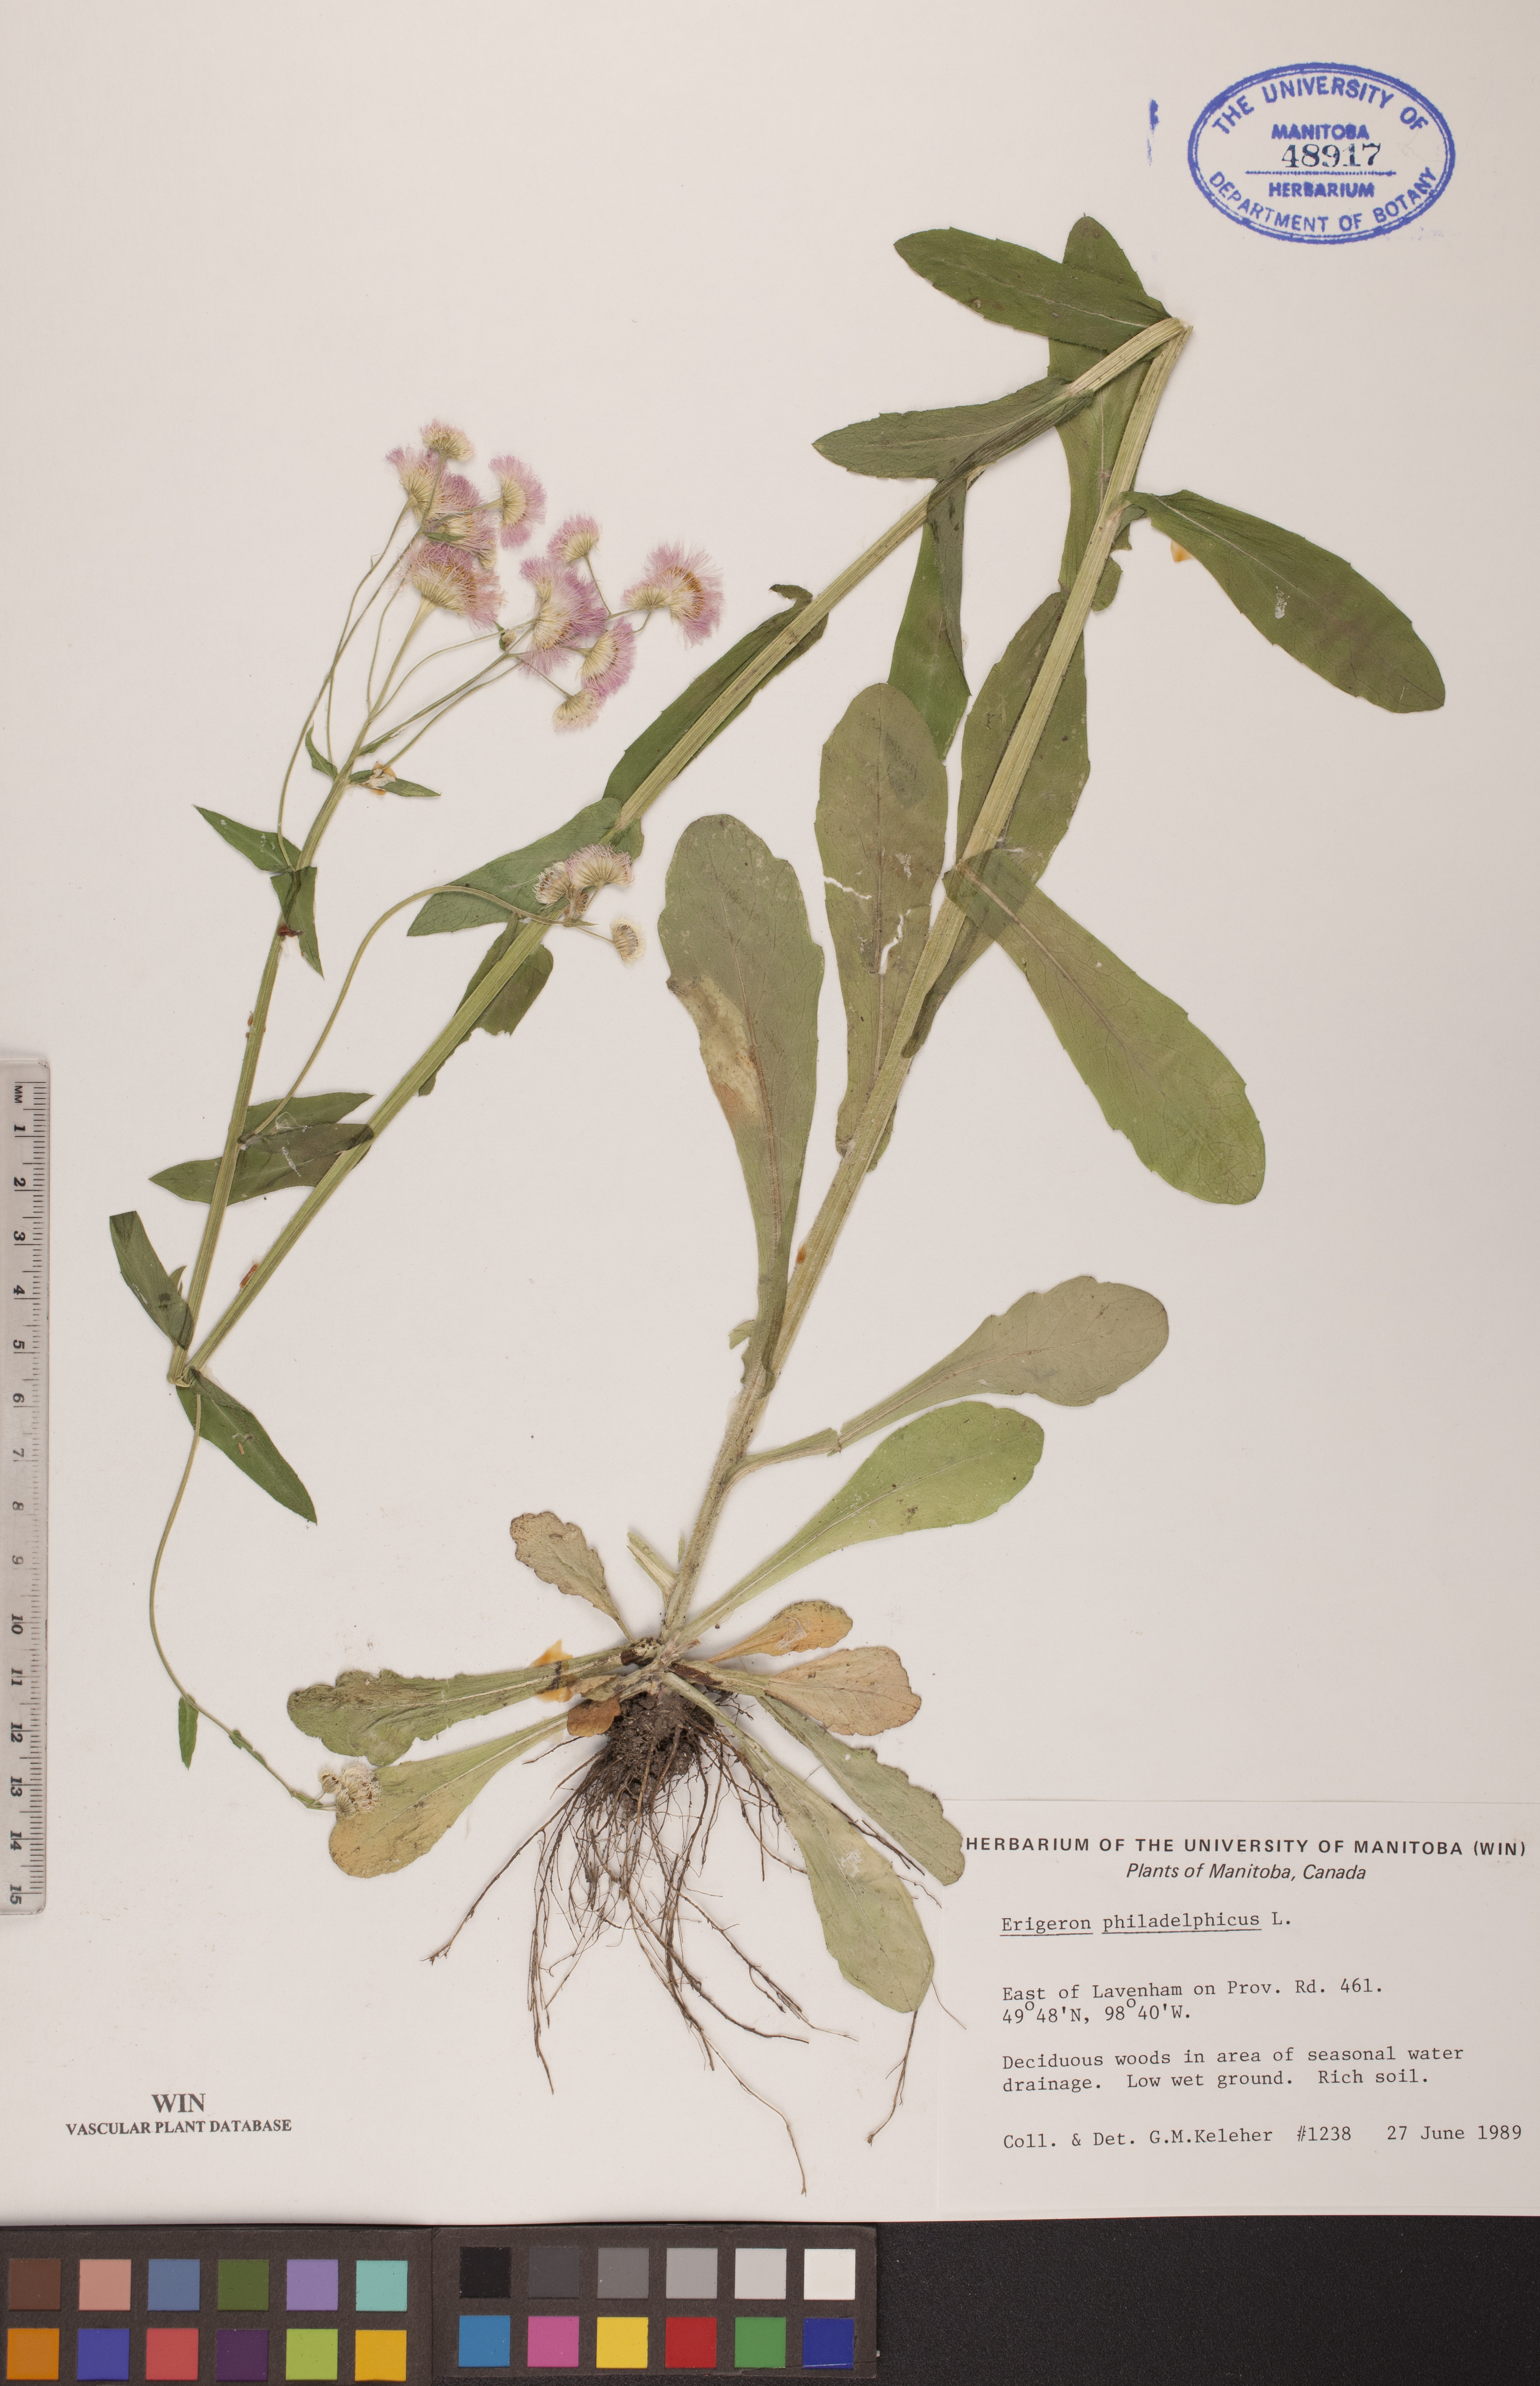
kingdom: Plantae
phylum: Tracheophyta
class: Magnoliopsida
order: Asterales
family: Asteraceae
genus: Erigeron
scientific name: Erigeron philadelphicus
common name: Robin's-plantain
